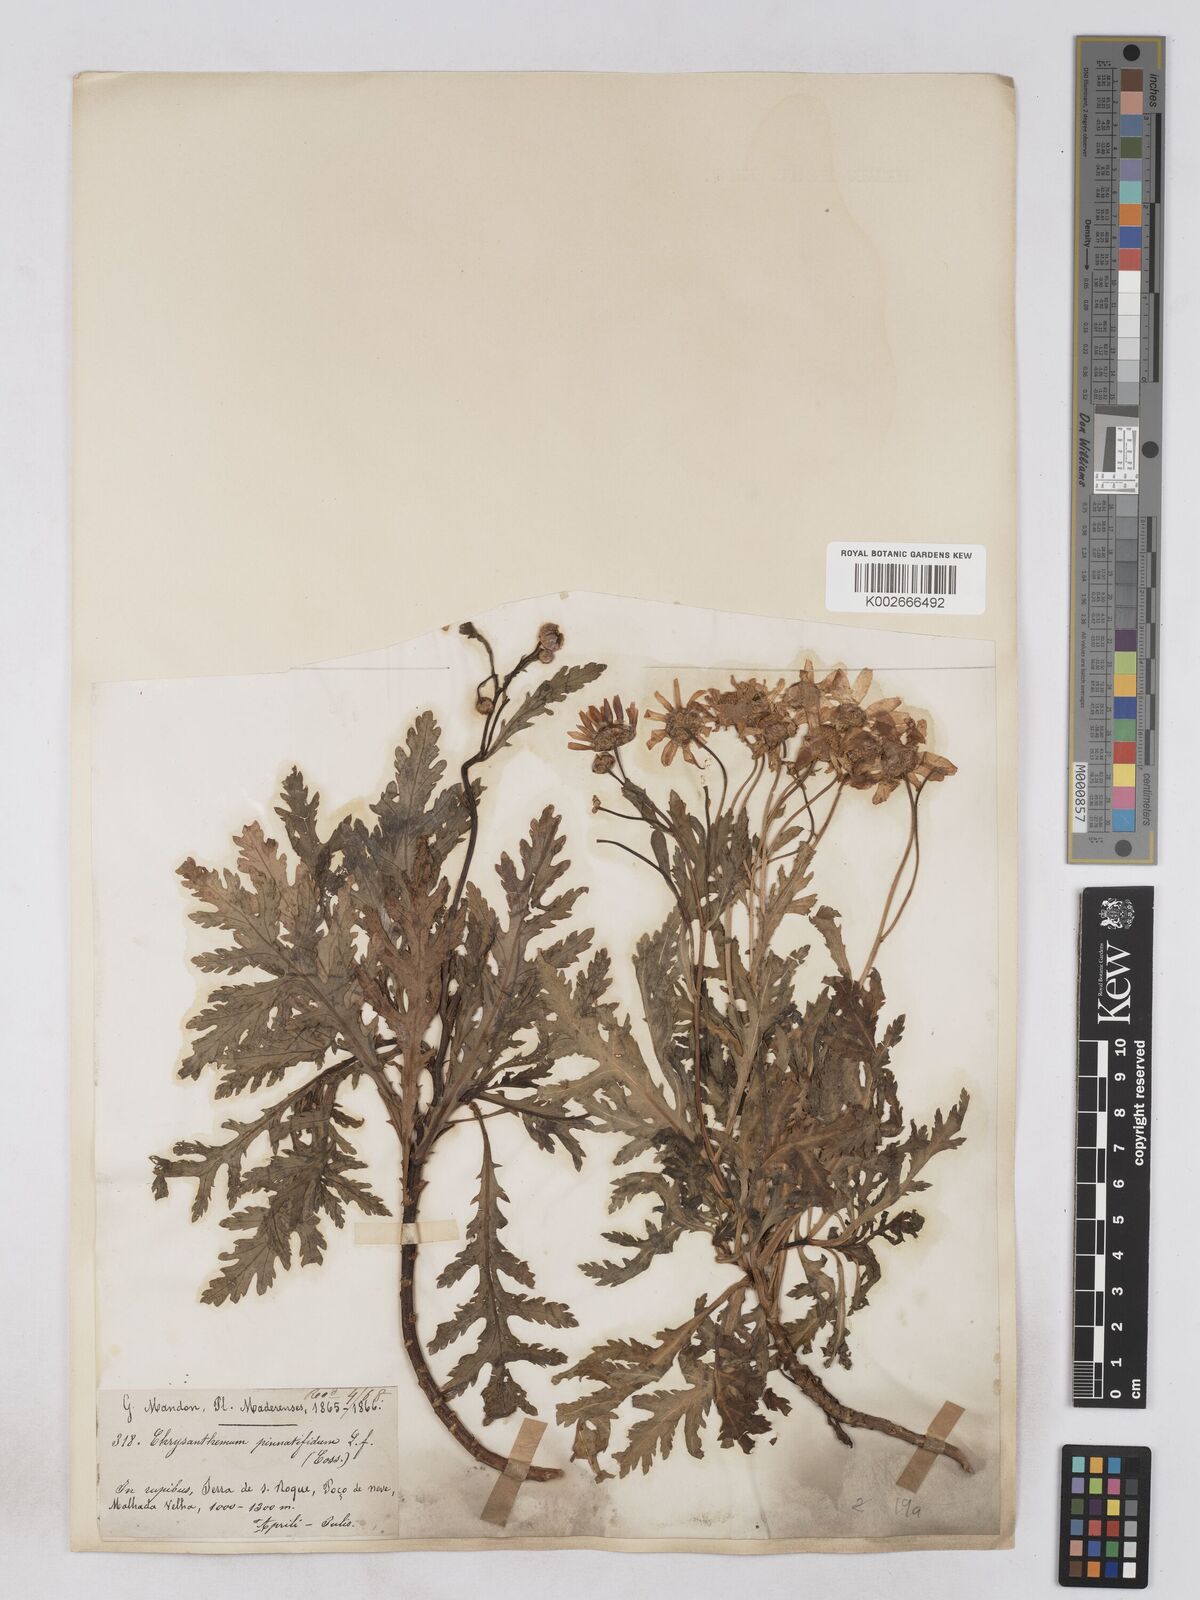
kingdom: Plantae
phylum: Tracheophyta
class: Magnoliopsida
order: Asterales
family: Asteraceae
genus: Argyranthemum
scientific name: Argyranthemum pinnatifidum
